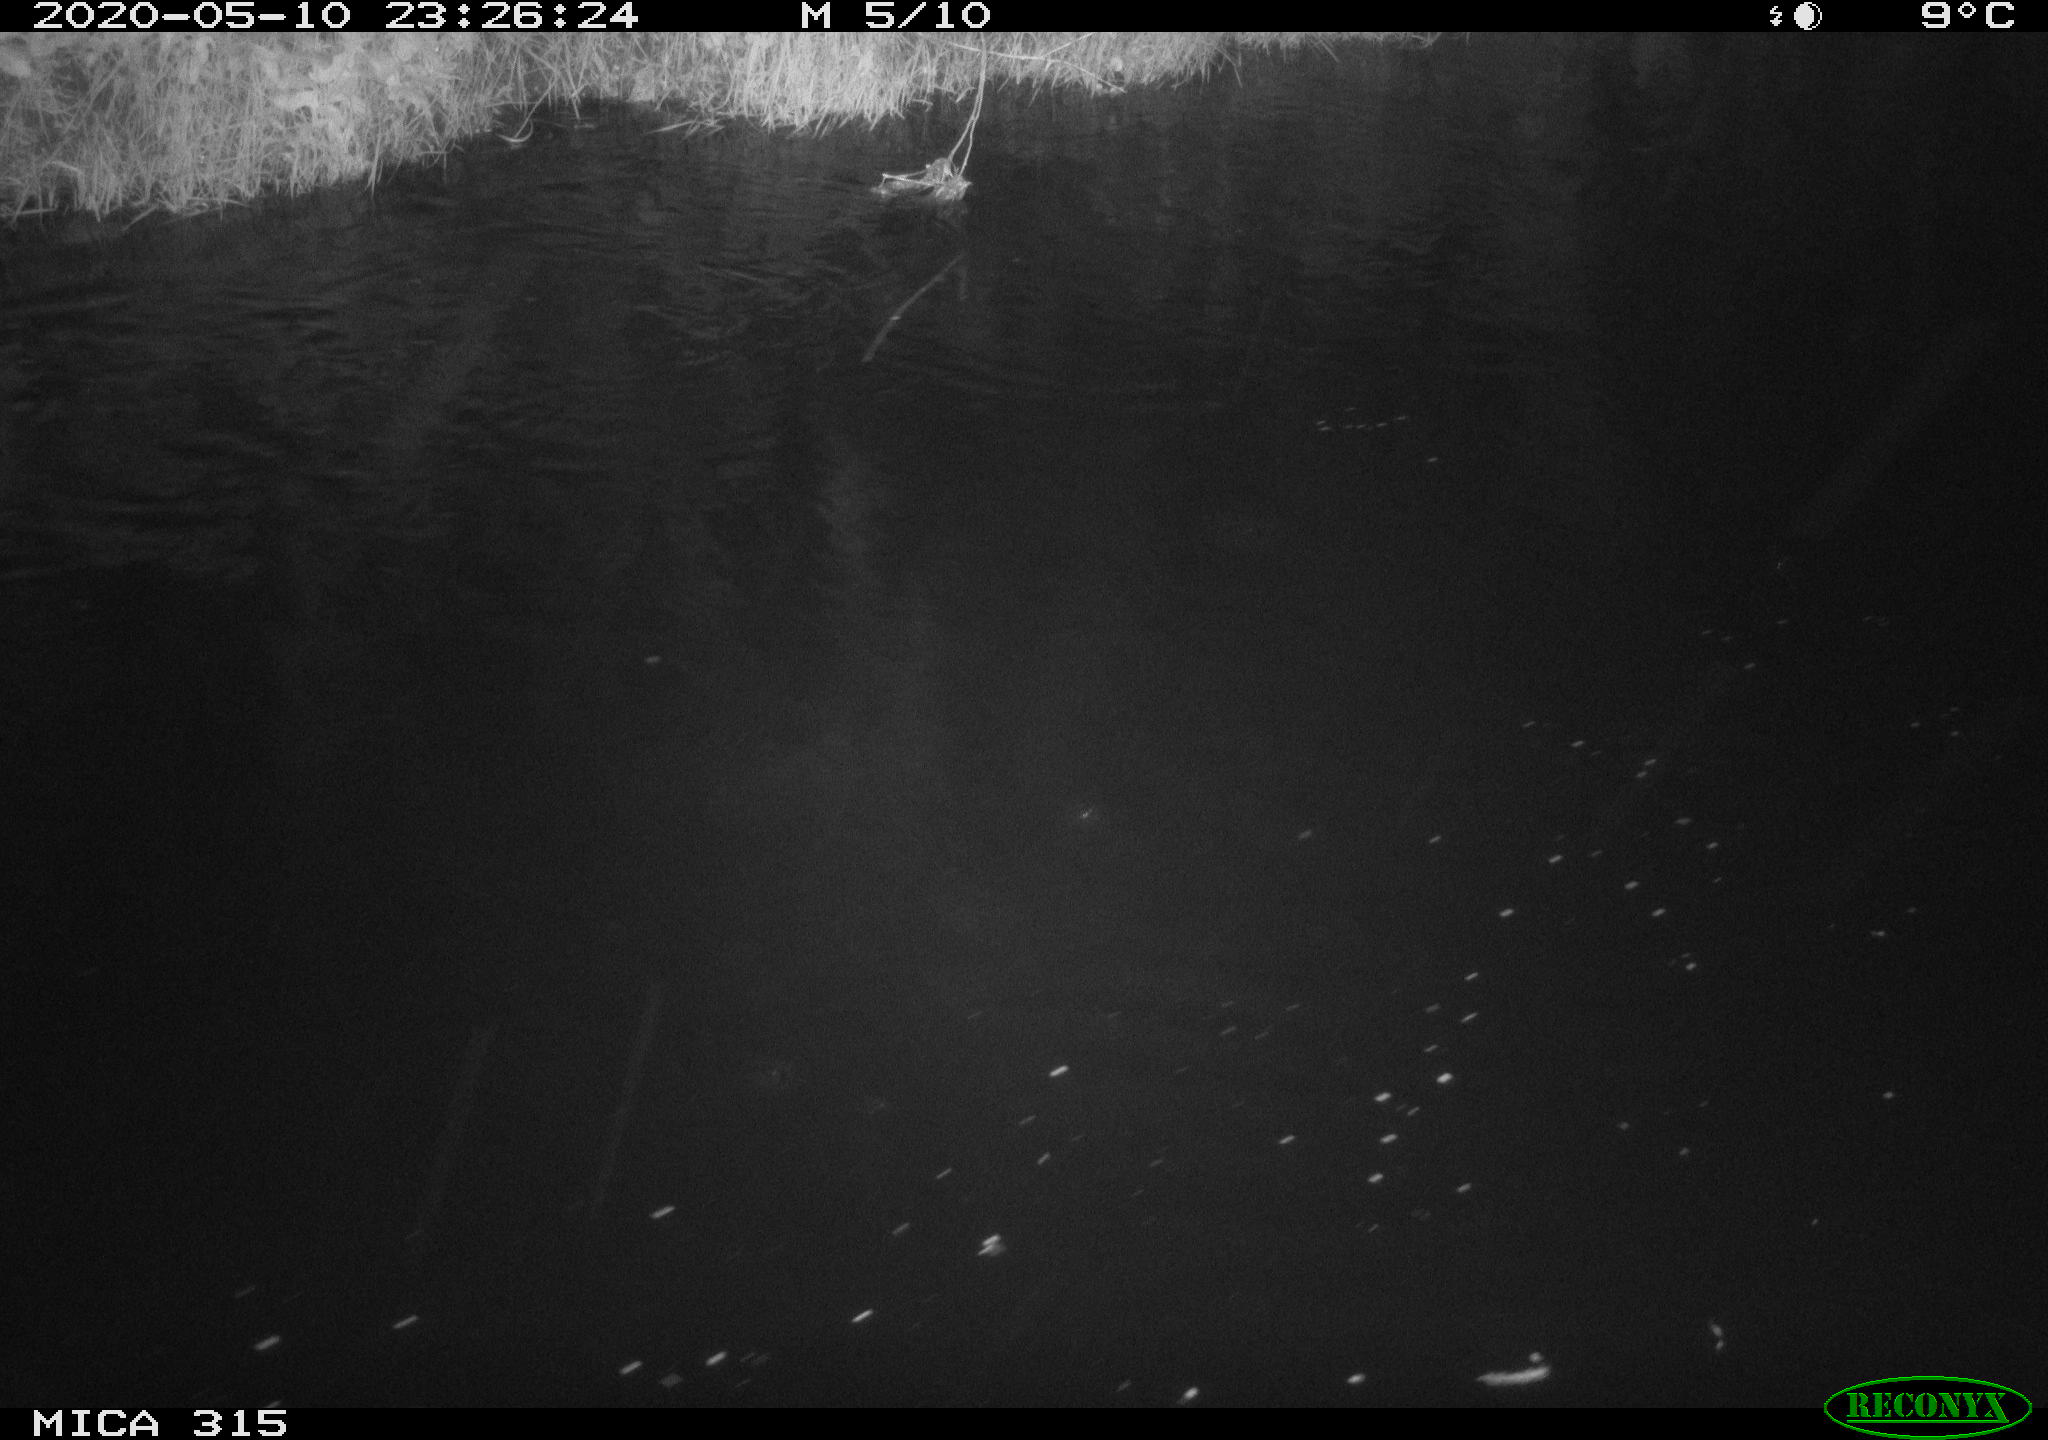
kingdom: Animalia
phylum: Chordata
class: Aves
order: Anseriformes
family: Anatidae
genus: Anas
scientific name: Anas platyrhynchos
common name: Mallard
